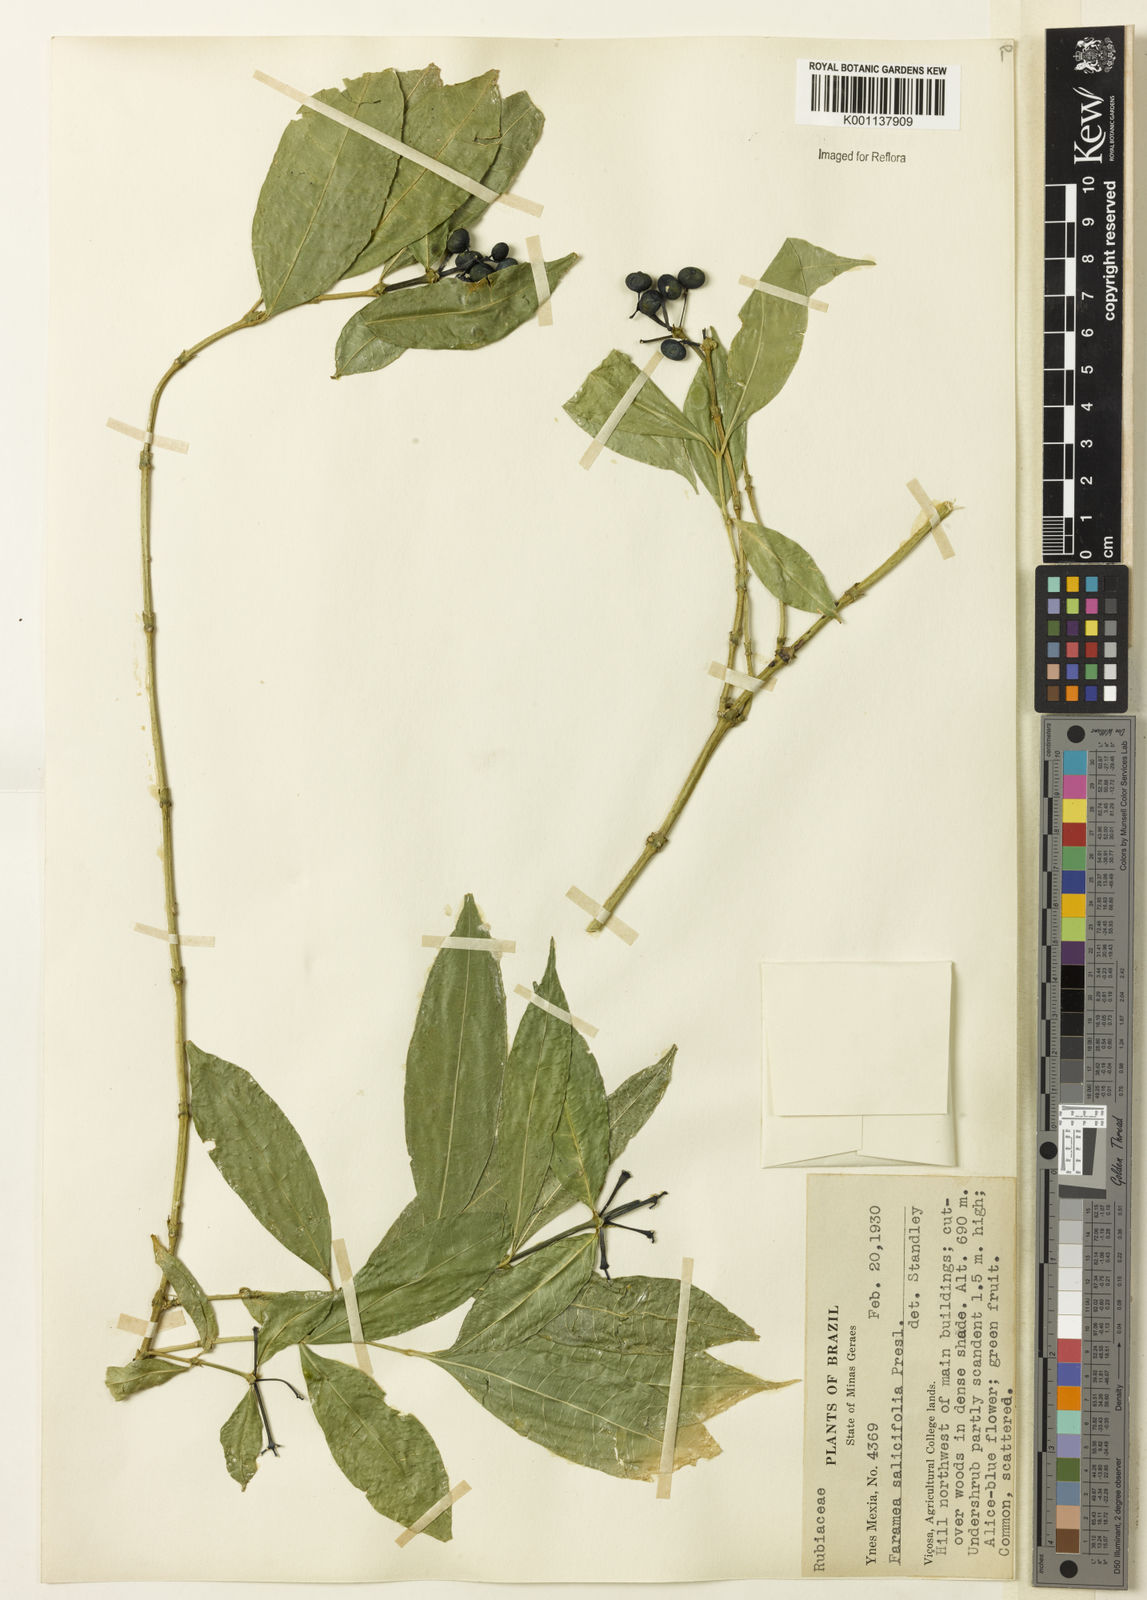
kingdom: Plantae
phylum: Tracheophyta
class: Magnoliopsida
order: Gentianales
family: Rubiaceae
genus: Faramea
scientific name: Faramea multiflora
